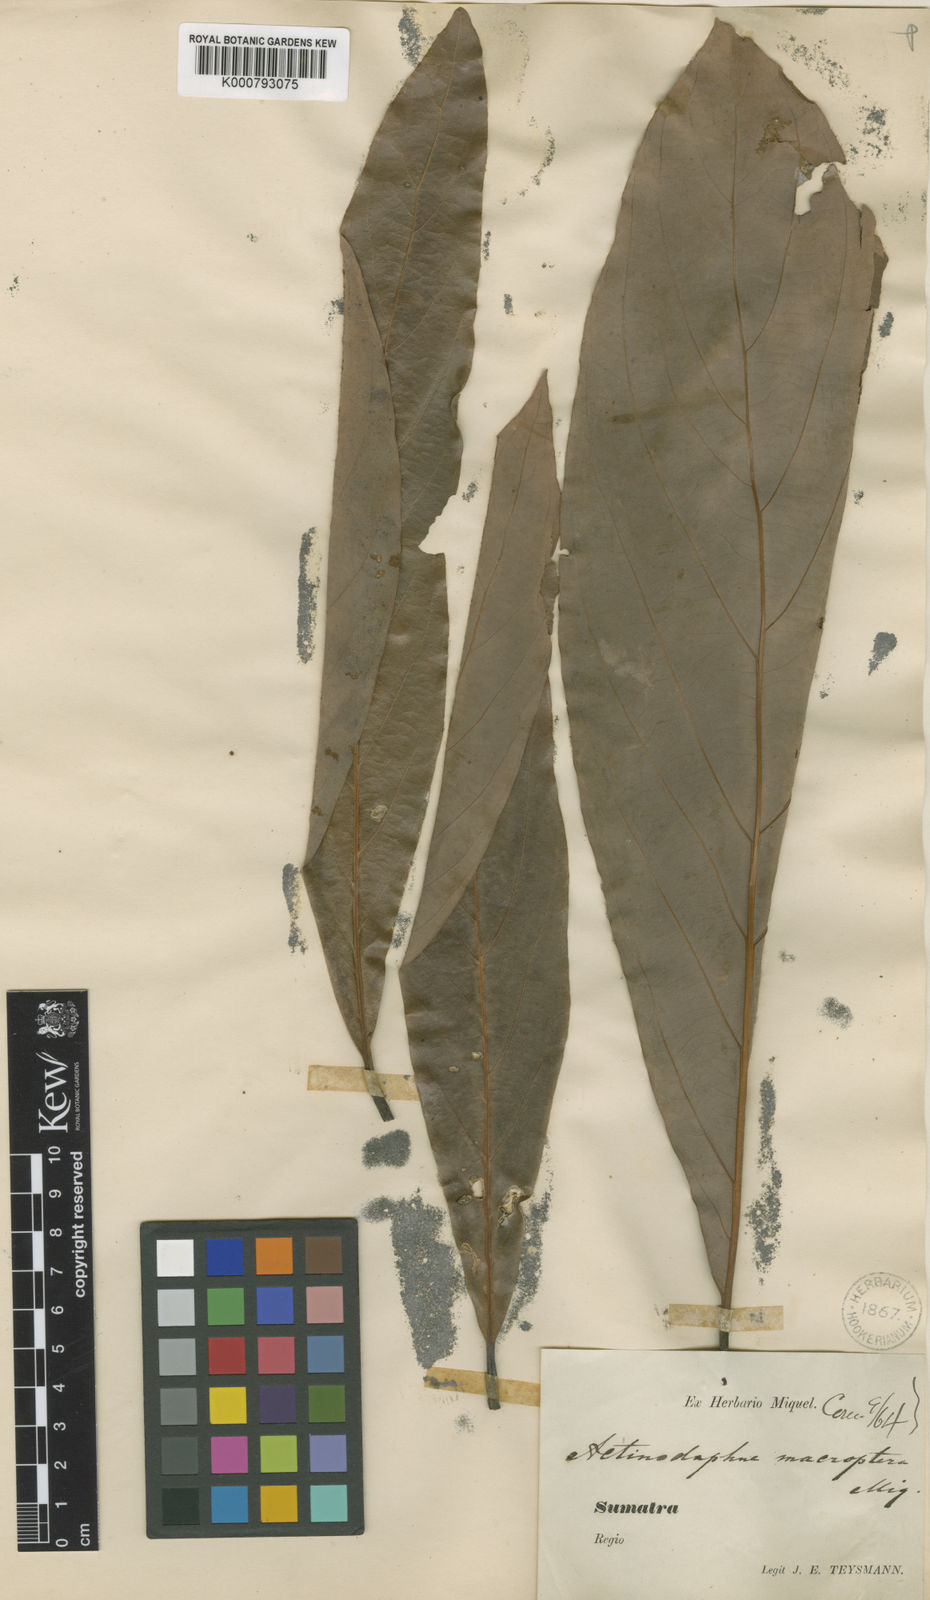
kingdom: Plantae
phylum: Tracheophyta
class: Magnoliopsida
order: Laurales
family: Lauraceae
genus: Actinodaphne
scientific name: Actinodaphne macroptera
